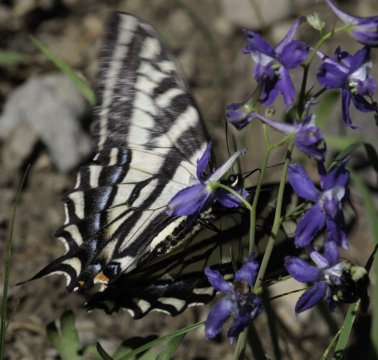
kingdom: Animalia
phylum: Arthropoda
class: Insecta
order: Lepidoptera
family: Papilionidae
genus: Pterourus
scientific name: Pterourus eurymedon
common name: Pale Swallowtail
